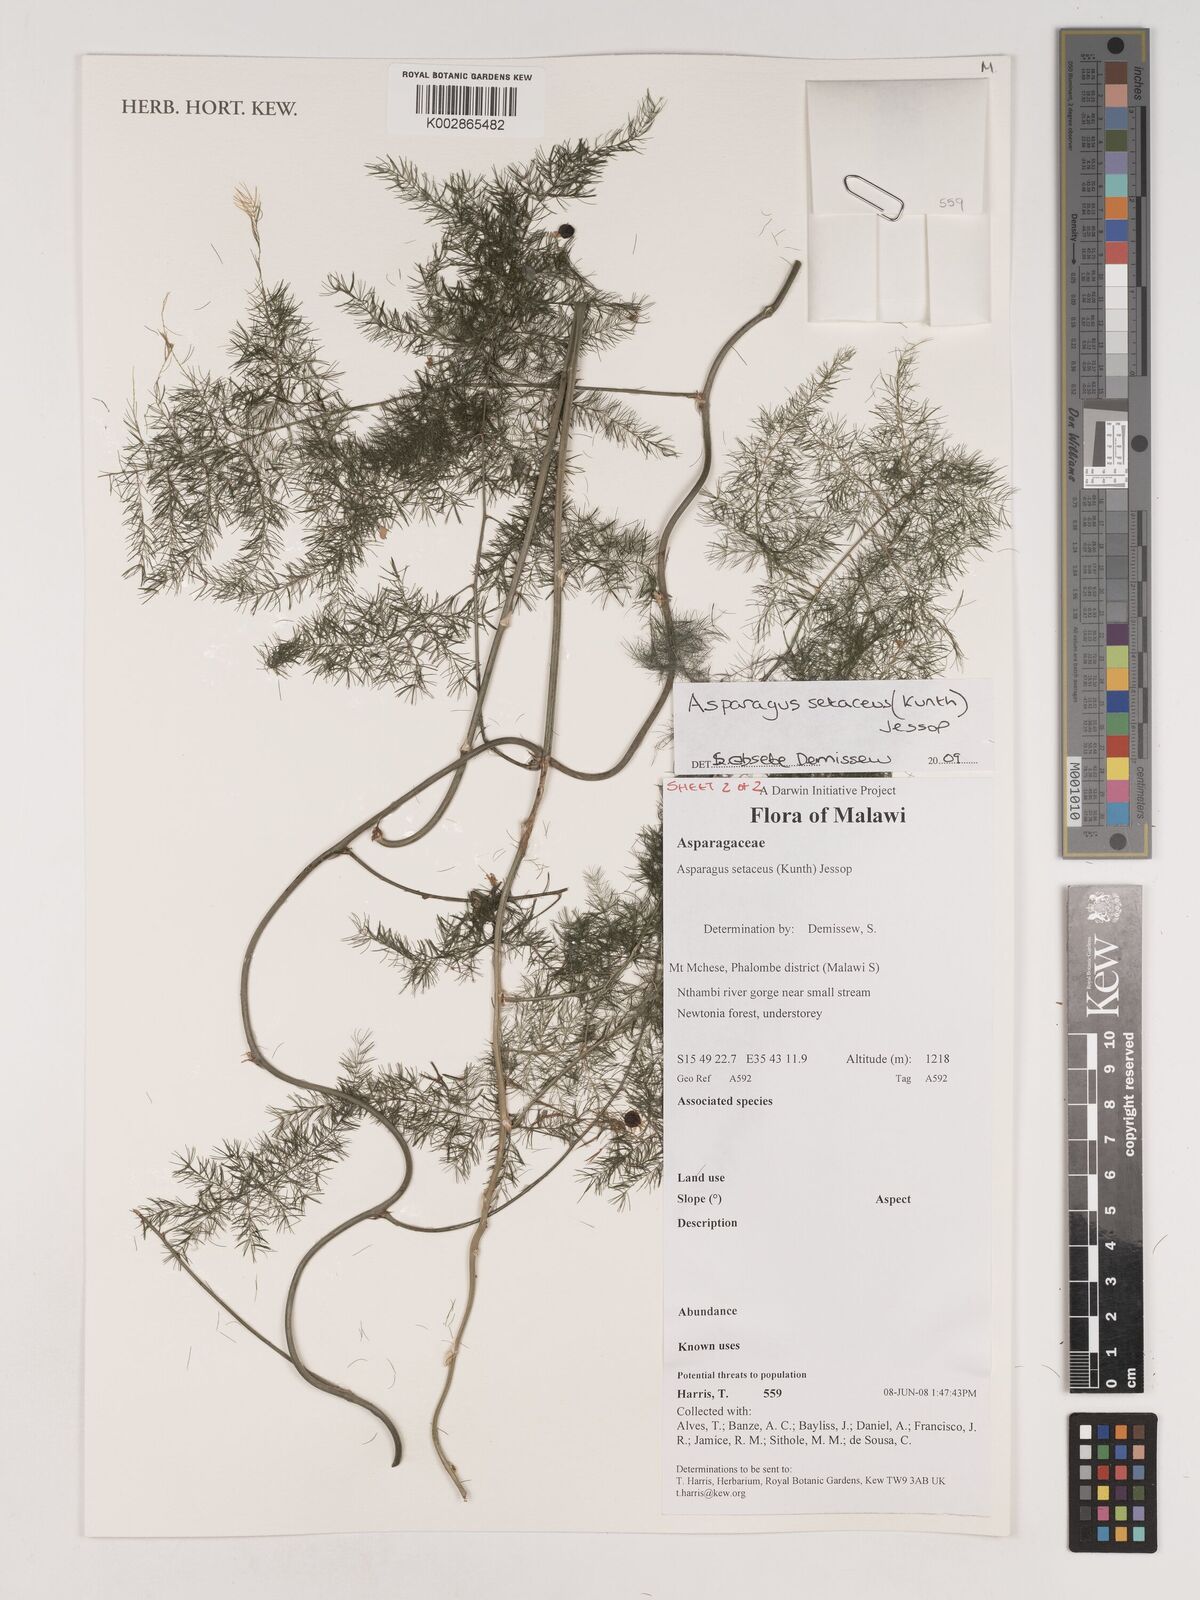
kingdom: Plantae
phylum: Tracheophyta
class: Liliopsida
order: Asparagales
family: Asparagaceae
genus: Asparagus
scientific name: Asparagus setaceus
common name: Common asparagus fern
